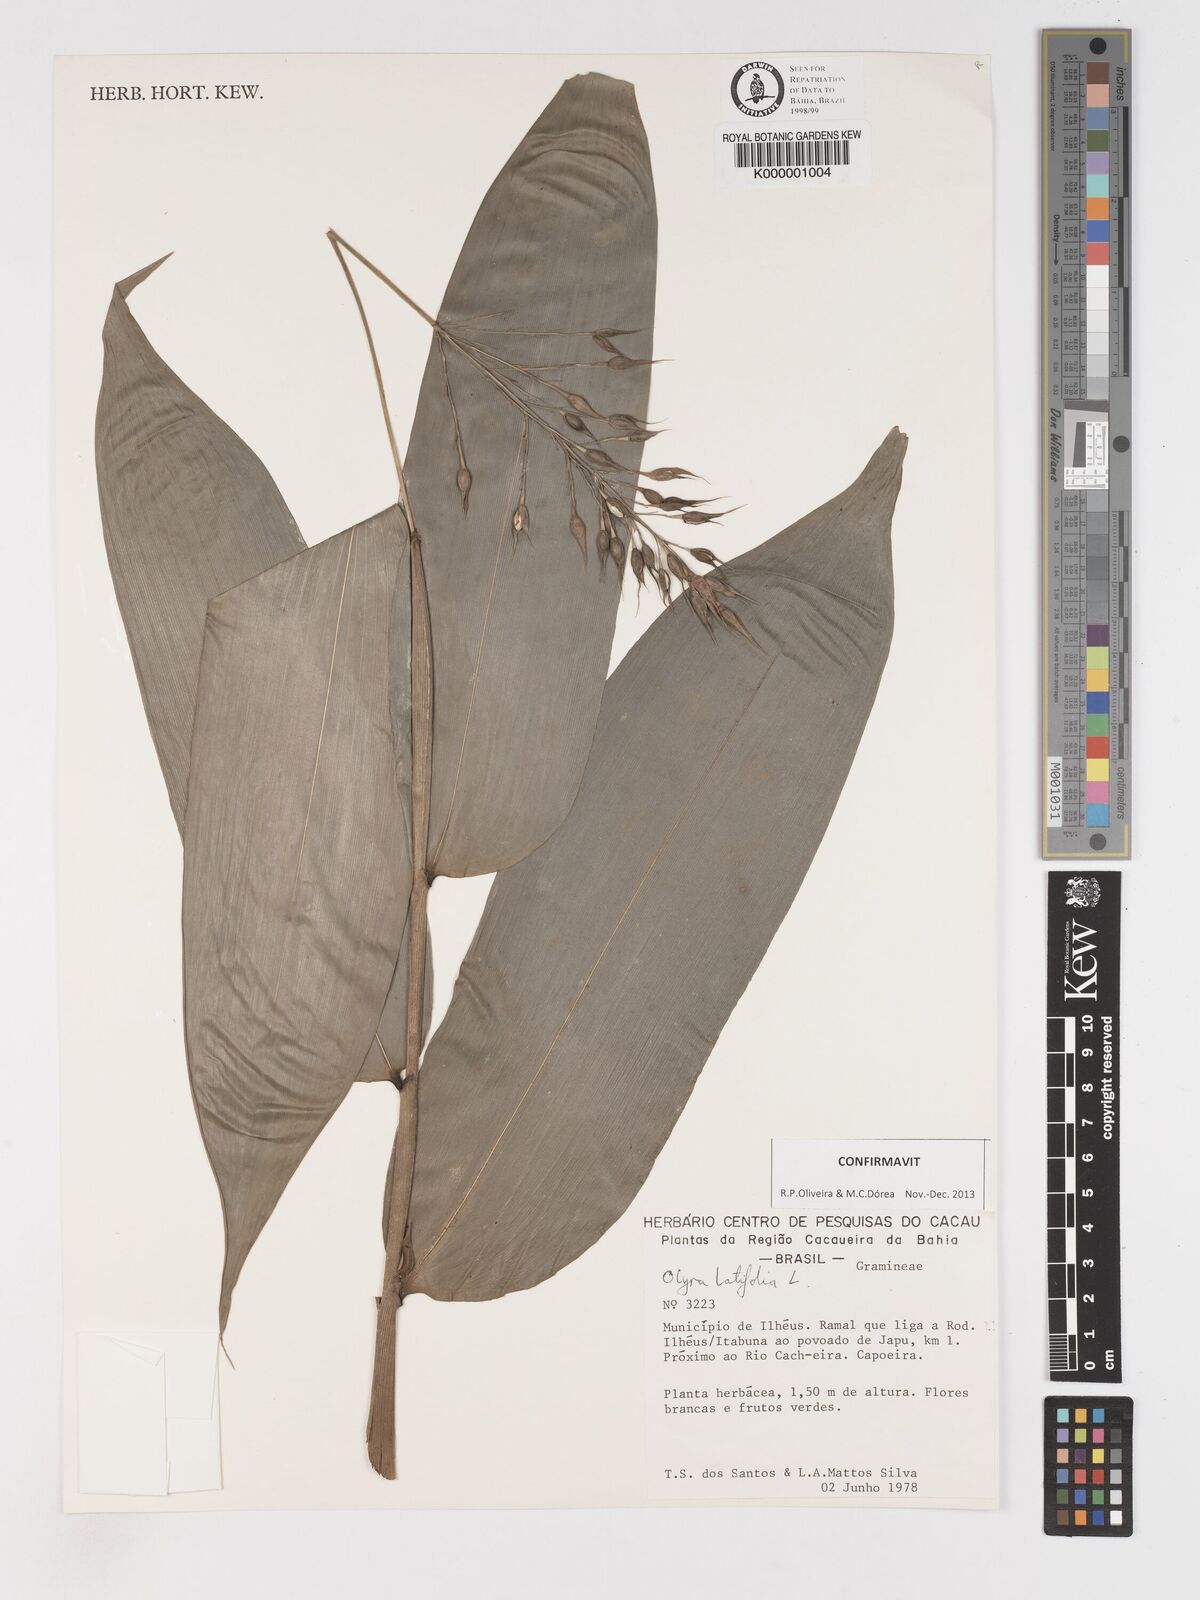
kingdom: Plantae
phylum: Tracheophyta
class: Liliopsida
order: Poales
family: Poaceae
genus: Olyra
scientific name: Olyra latifolia
